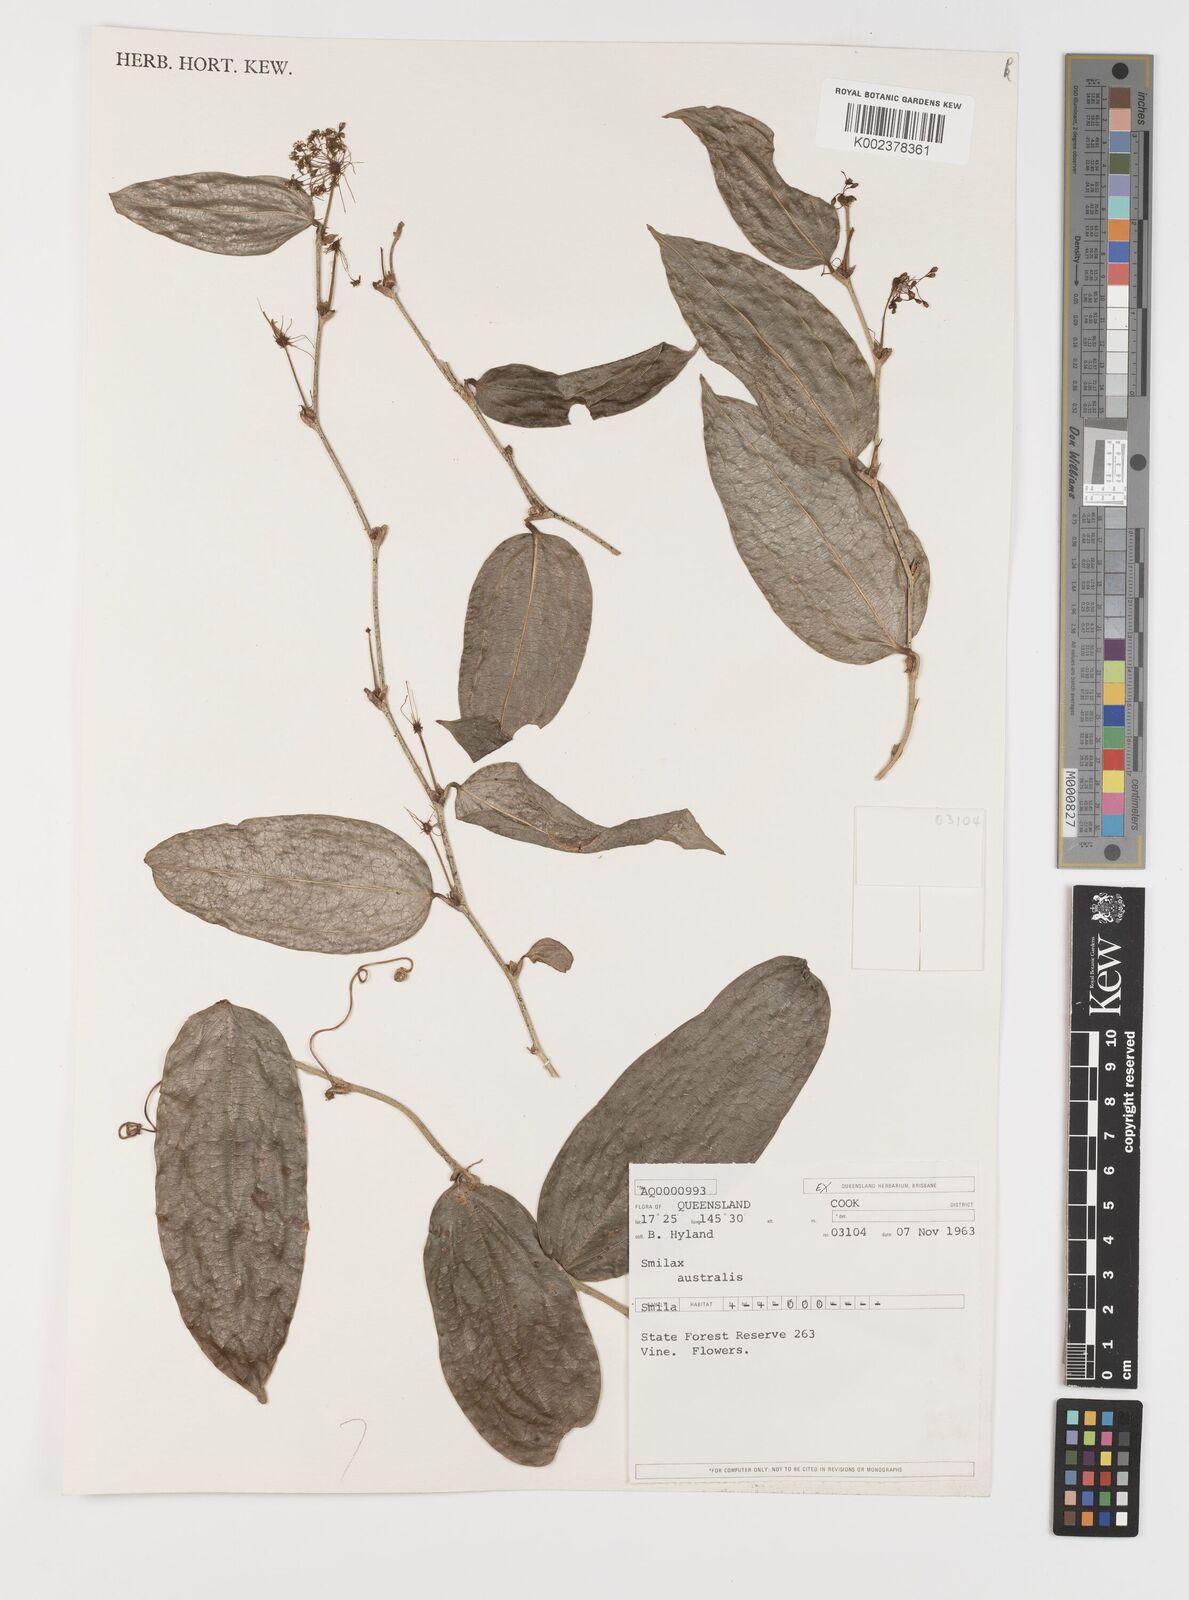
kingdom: Plantae
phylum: Tracheophyta
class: Liliopsida
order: Liliales
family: Smilacaceae
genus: Smilax
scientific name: Smilax australis
